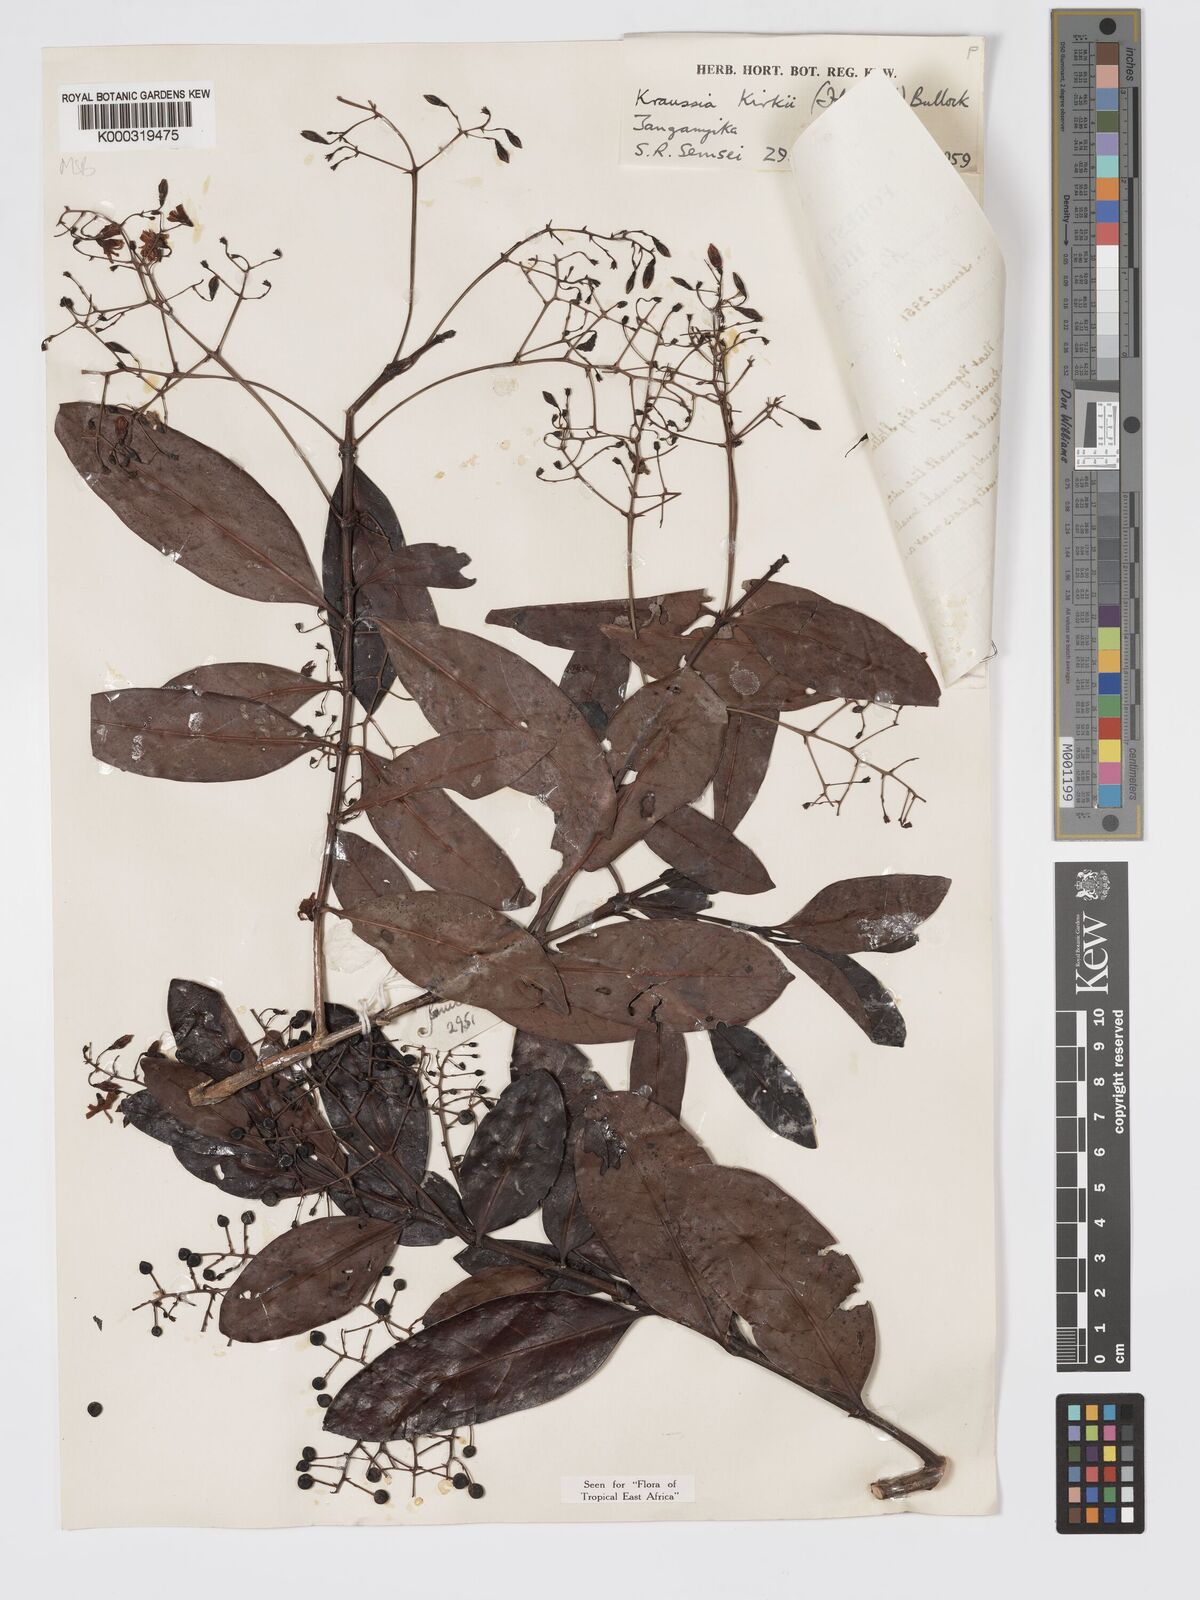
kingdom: Plantae
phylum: Tracheophyta
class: Magnoliopsida
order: Gentianales
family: Rubiaceae
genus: Kraussia
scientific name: Kraussia kirkii
